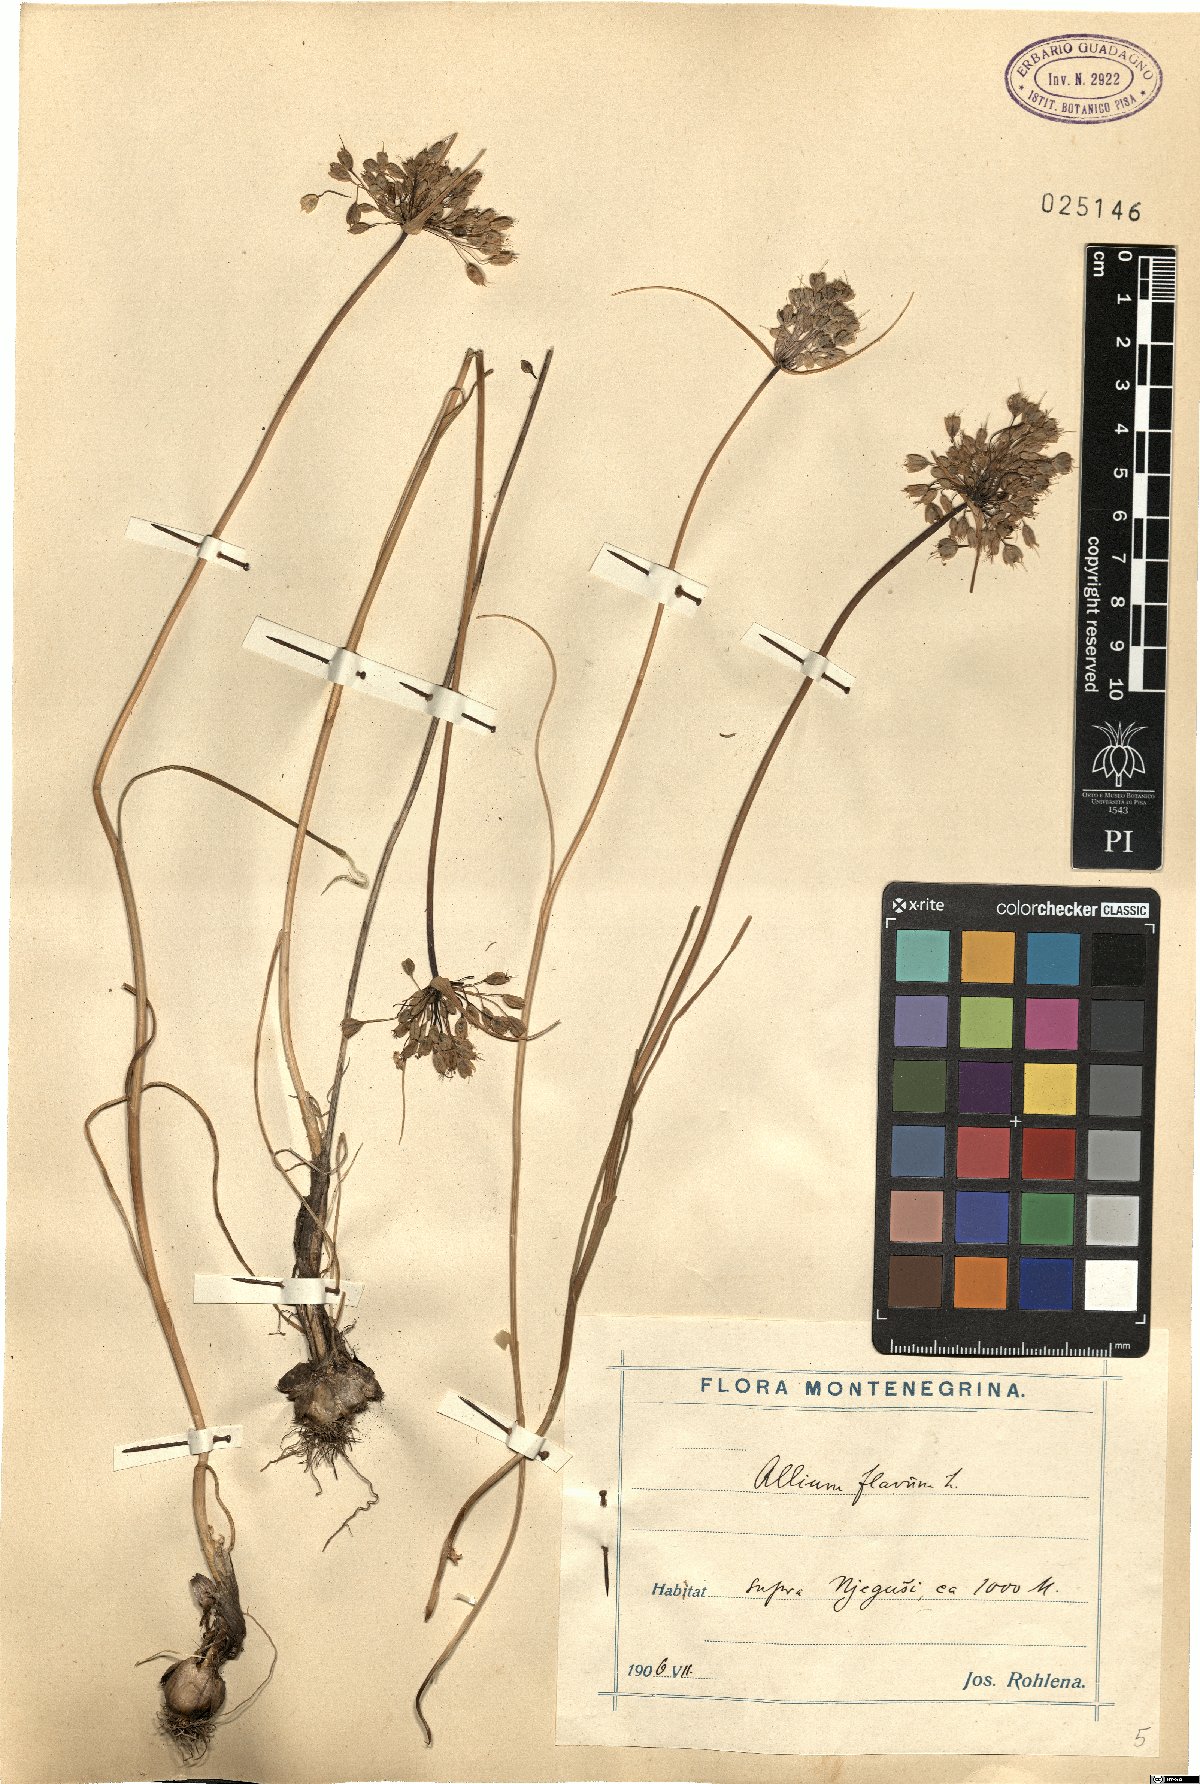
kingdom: Plantae
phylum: Tracheophyta
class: Liliopsida
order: Asparagales
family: Amaryllidaceae
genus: Allium
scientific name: Allium flavum
